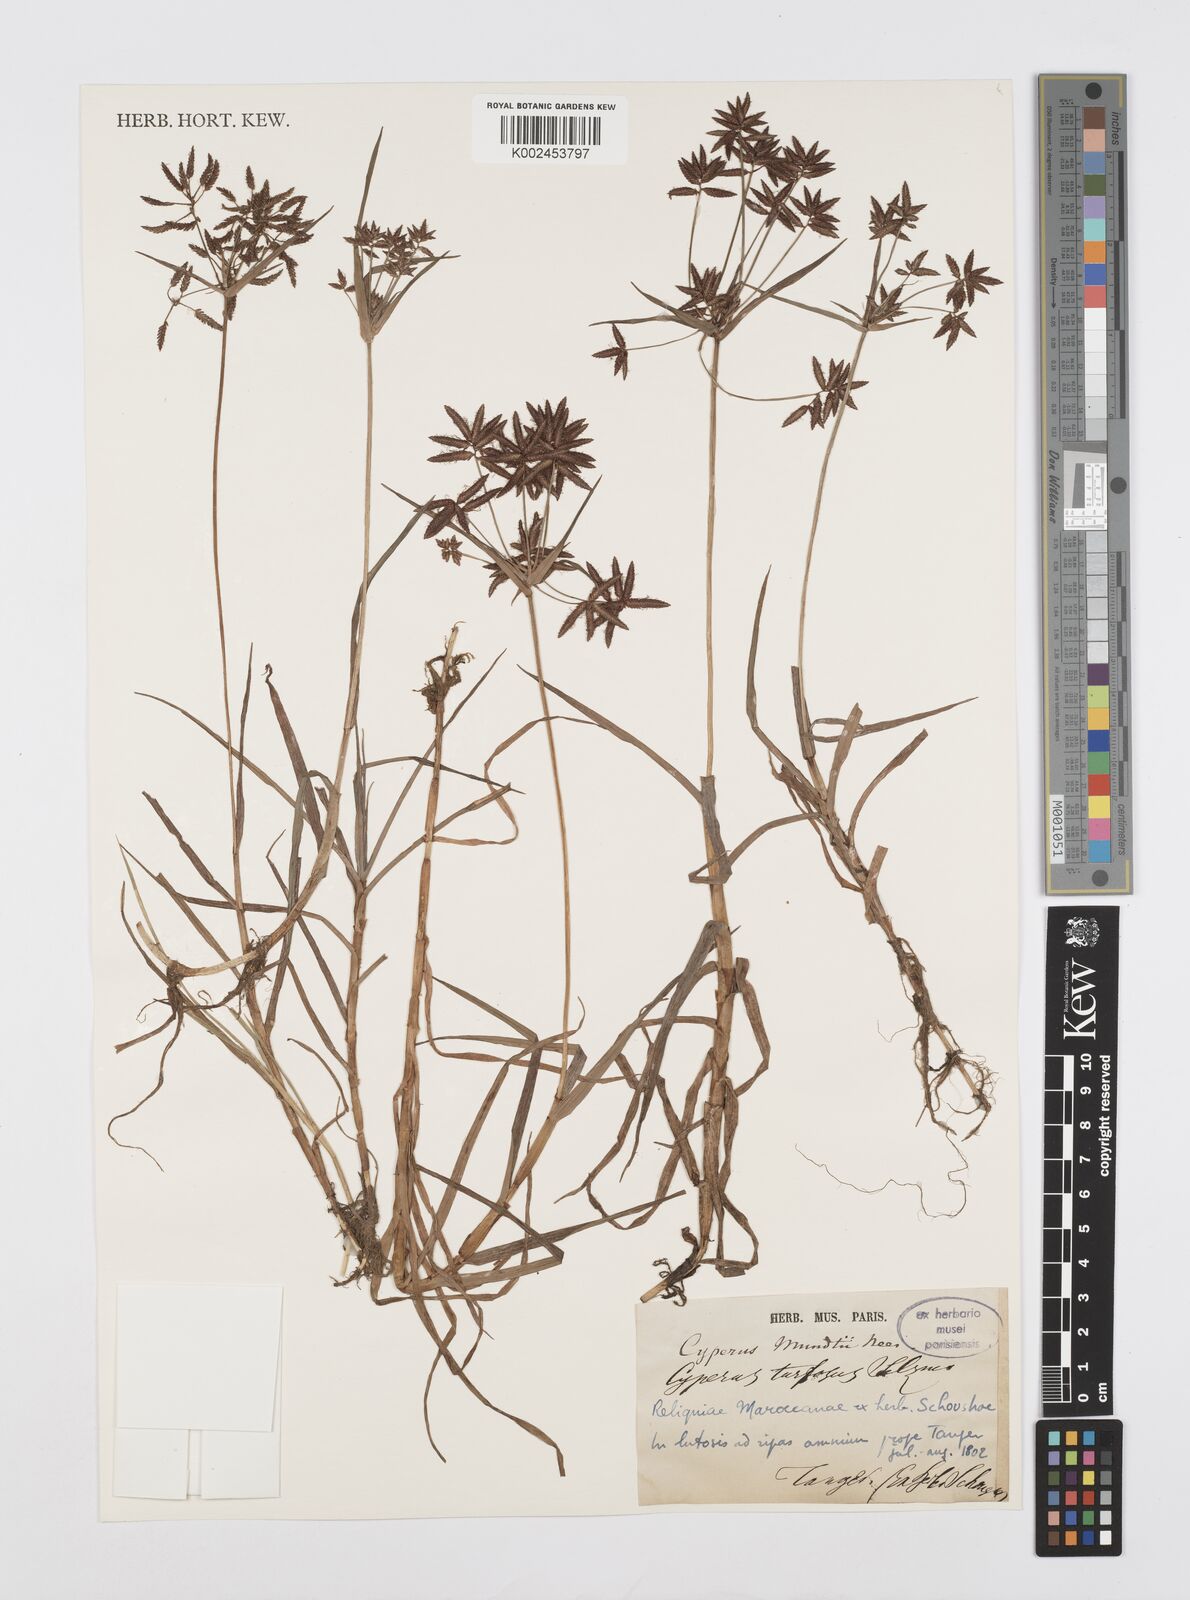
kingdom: Plantae
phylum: Tracheophyta
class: Liliopsida
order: Poales
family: Cyperaceae
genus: Cyperus
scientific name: Cyperus mundii
